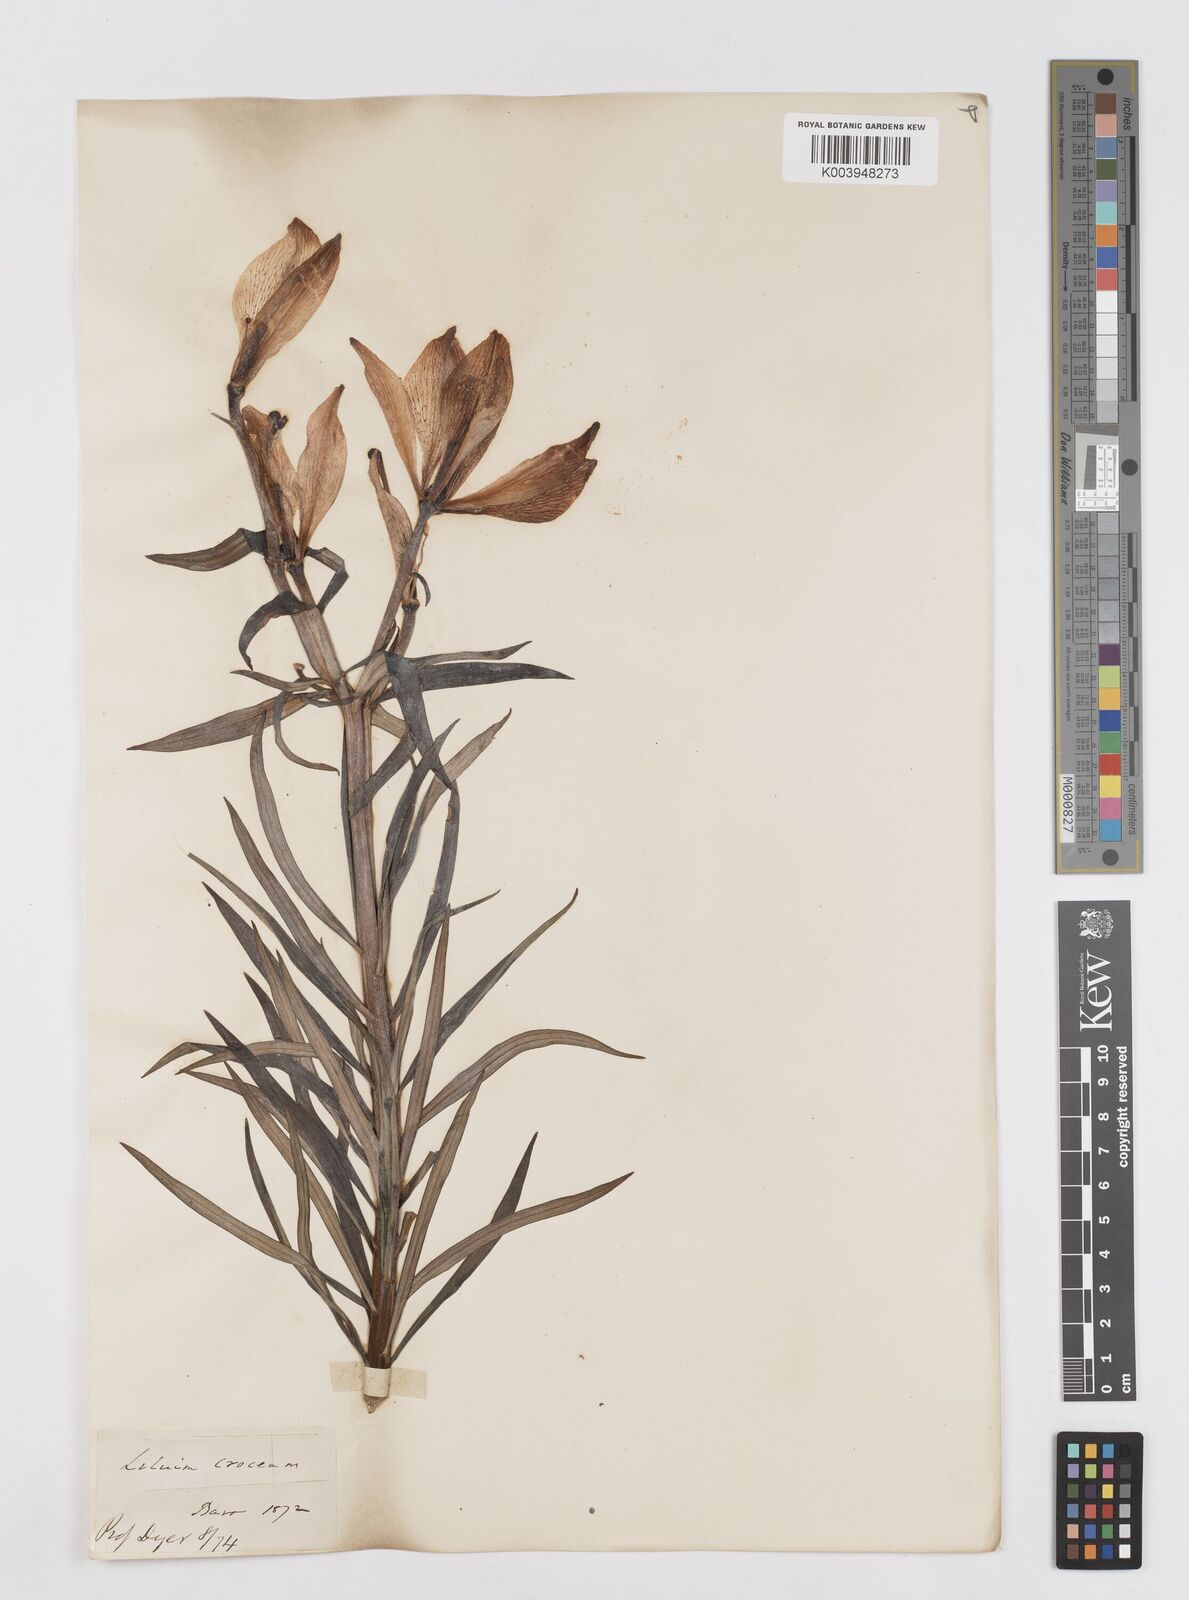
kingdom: Plantae
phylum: Tracheophyta
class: Liliopsida
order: Liliales
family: Liliaceae
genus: Lilium
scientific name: Lilium bulbiferum
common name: Orange lily
